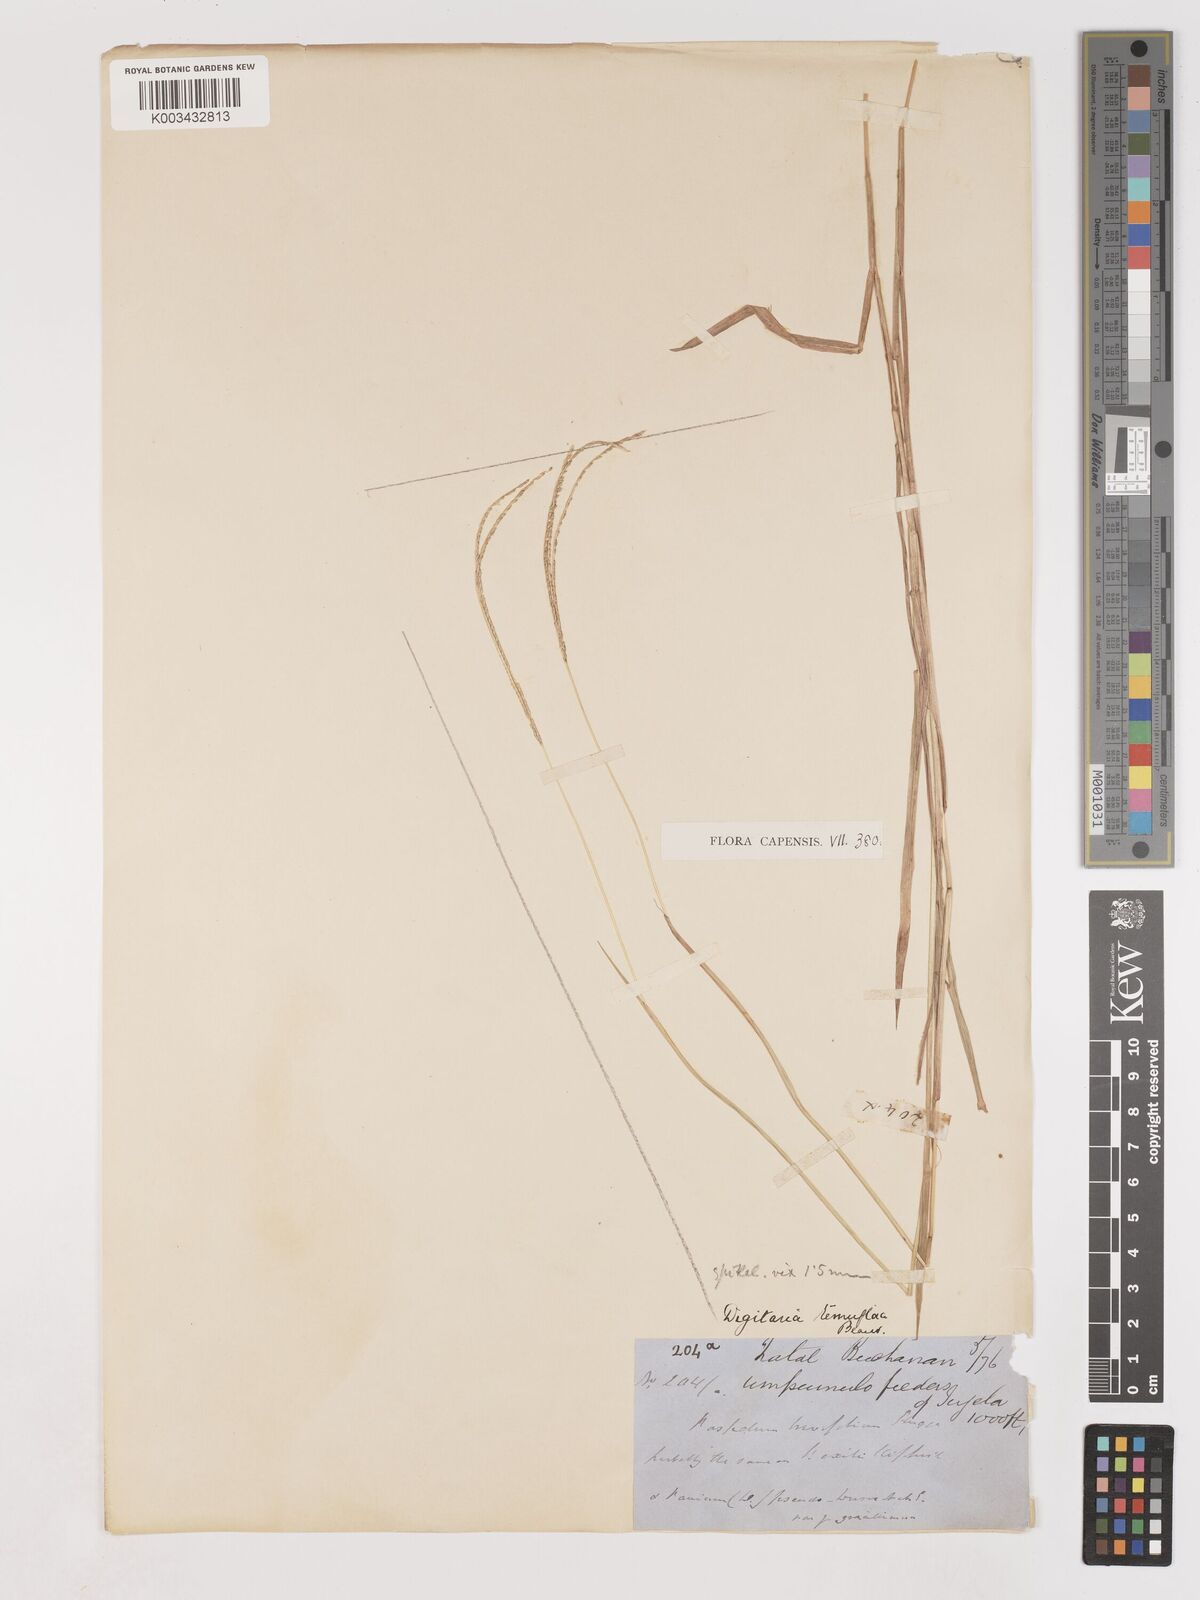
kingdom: Plantae
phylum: Tracheophyta
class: Liliopsida
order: Poales
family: Poaceae
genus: Digitaria
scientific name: Digitaria longiflora
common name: Wire crabgrass
